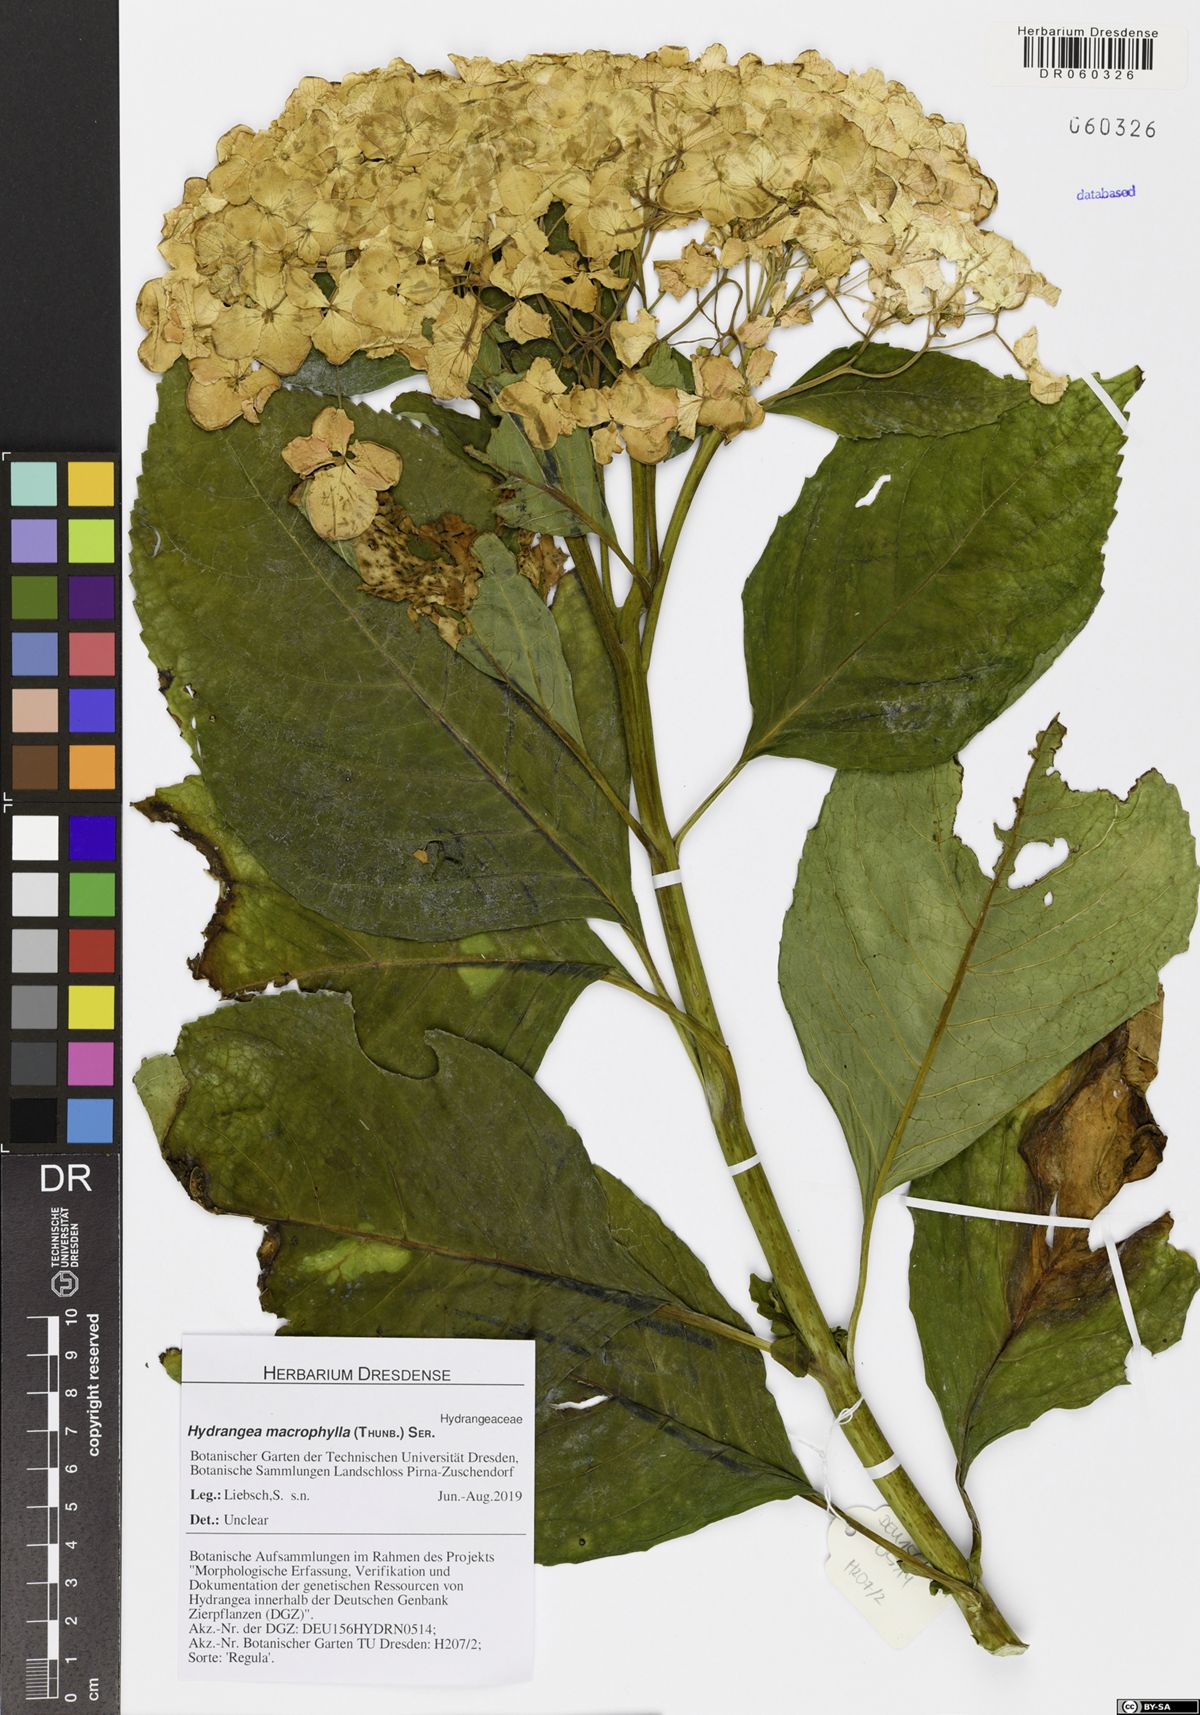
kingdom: Plantae
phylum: Tracheophyta
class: Magnoliopsida
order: Cornales
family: Hydrangeaceae
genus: Hydrangea
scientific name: Hydrangea macrophylla
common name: Hydrangea
